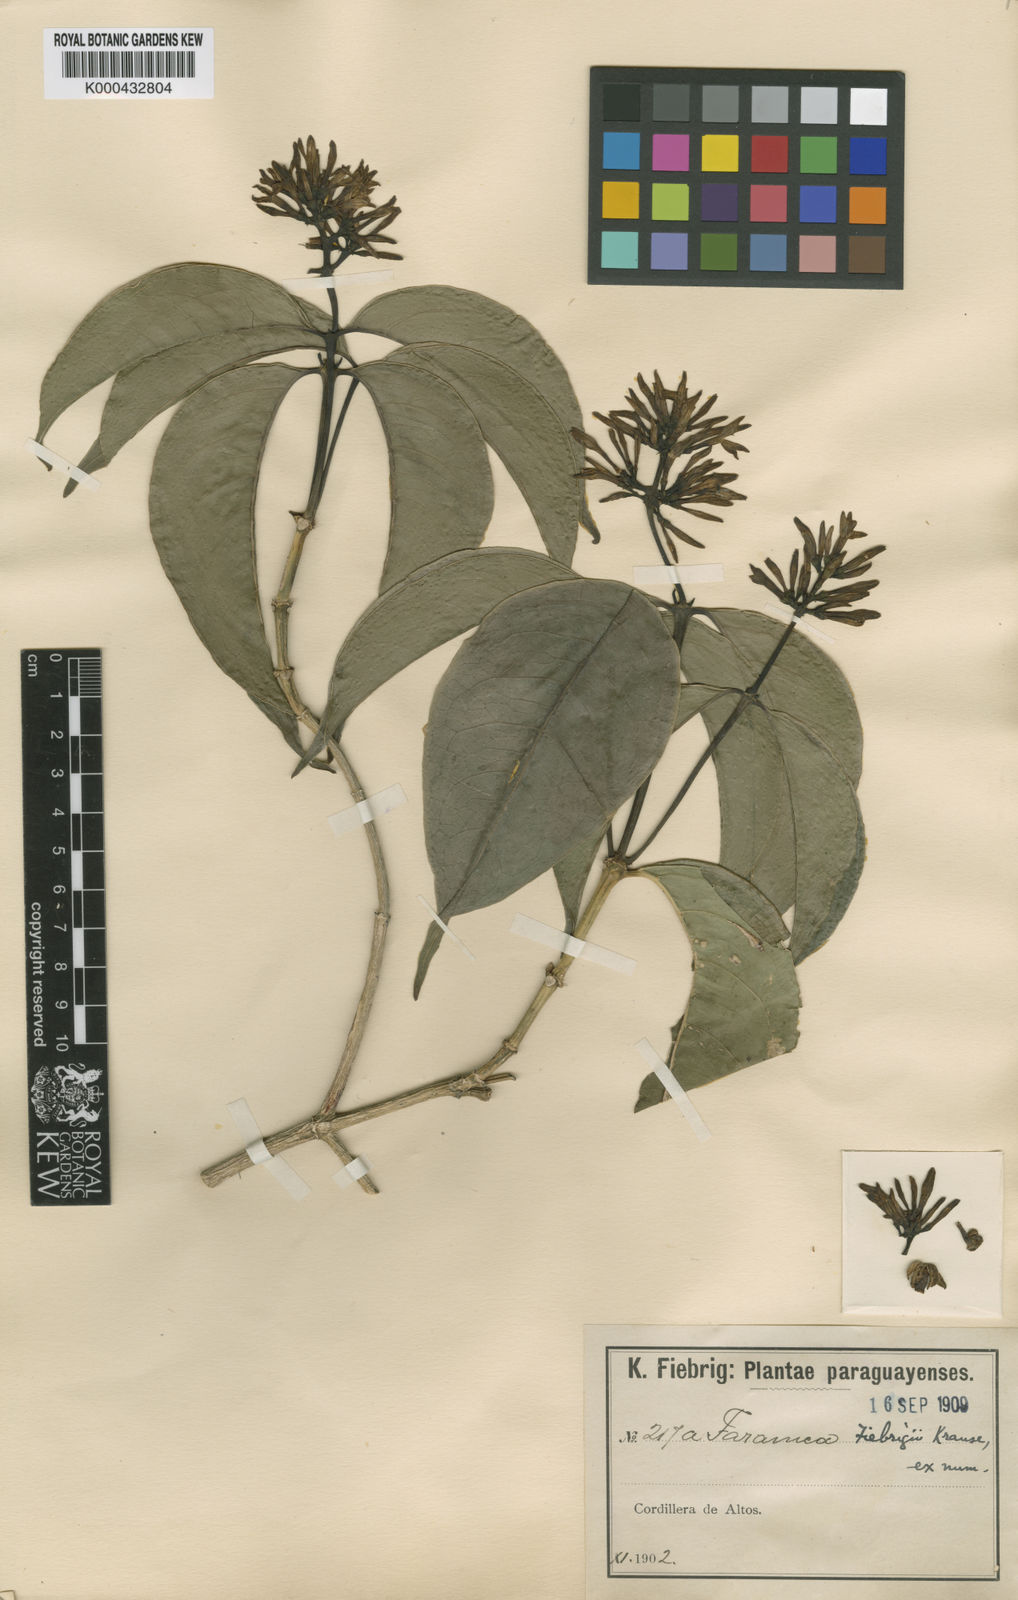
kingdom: Plantae
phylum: Tracheophyta
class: Magnoliopsida
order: Gentianales
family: Rubiaceae
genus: Coussarea
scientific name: Coussarea contracta
